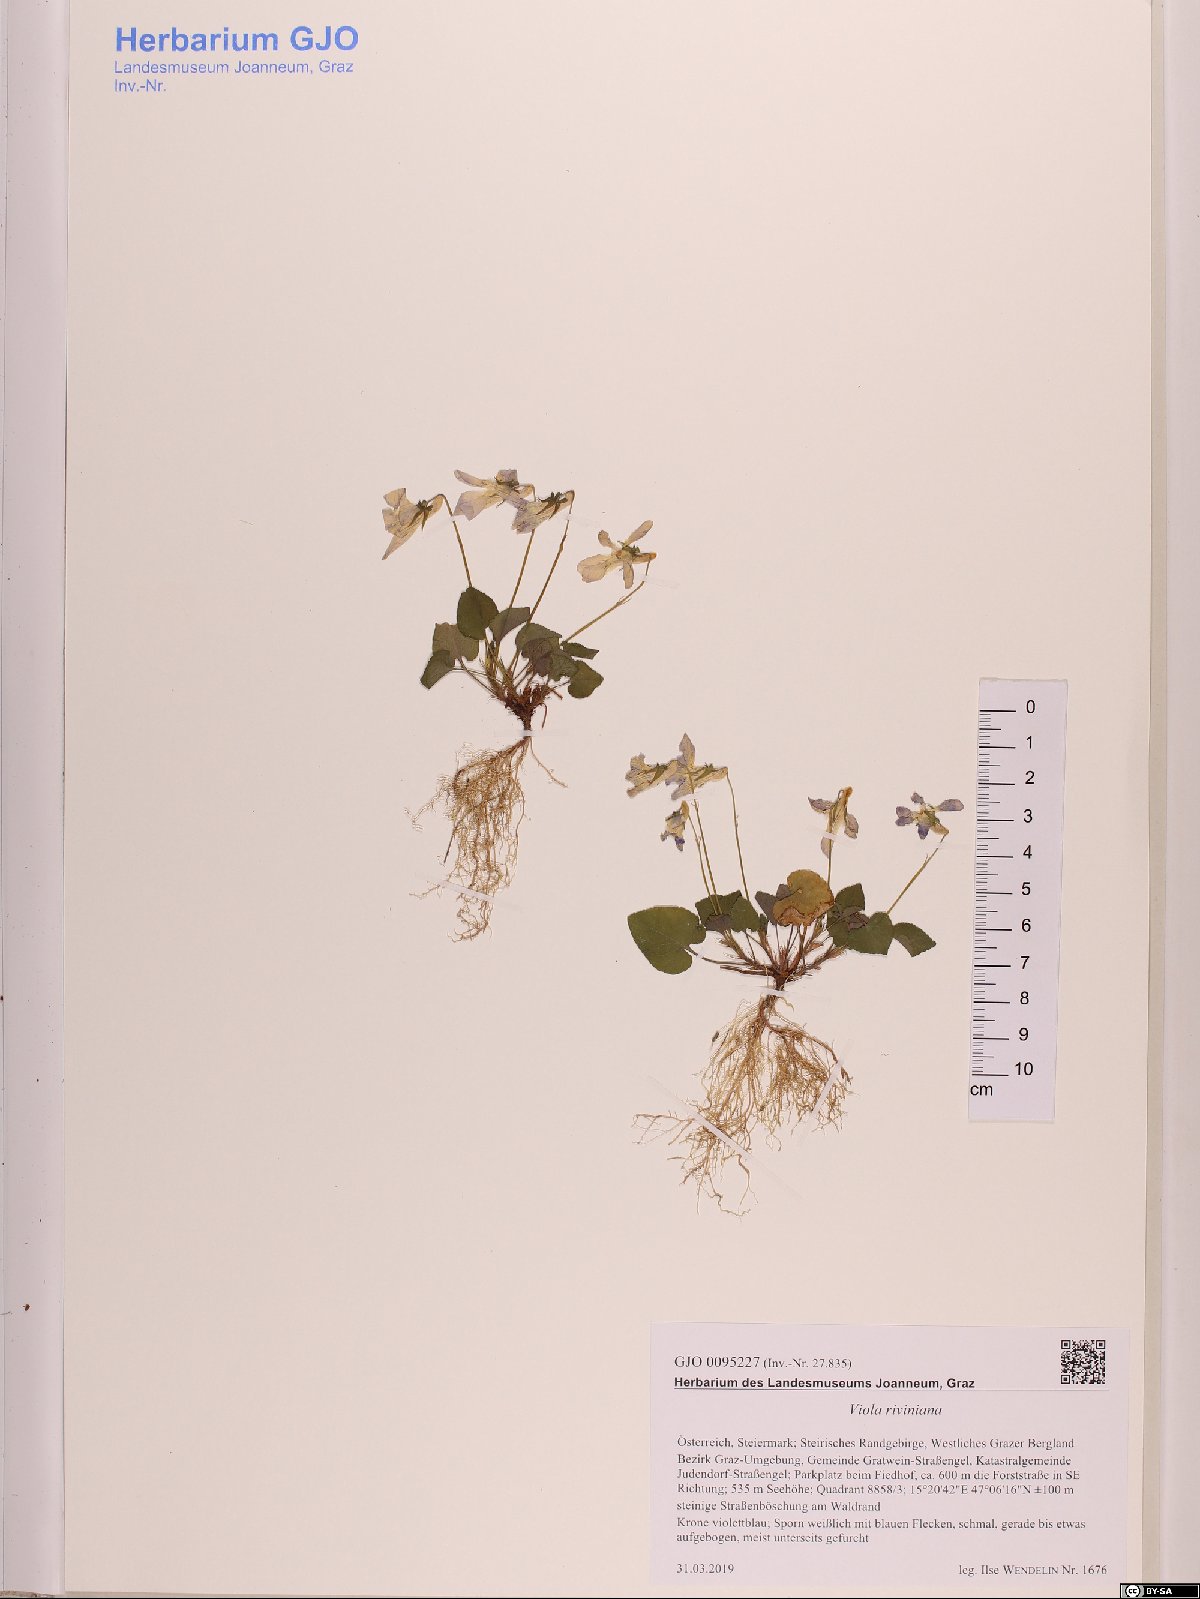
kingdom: Plantae
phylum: Tracheophyta
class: Magnoliopsida
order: Malpighiales
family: Violaceae
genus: Viola
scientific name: Viola riviniana
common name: Common dog-violet
